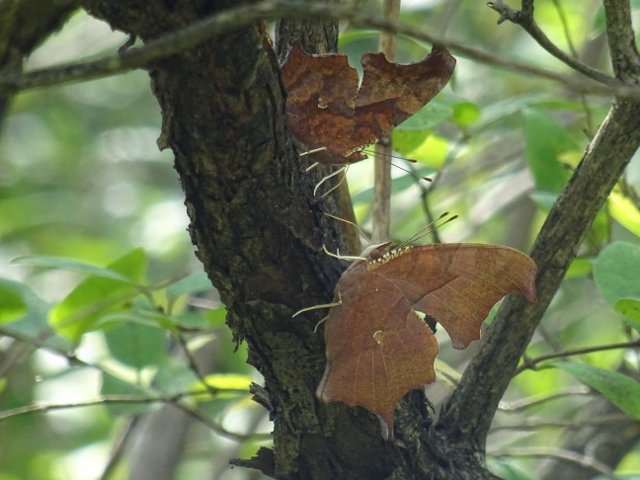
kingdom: Animalia
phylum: Arthropoda
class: Insecta
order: Lepidoptera
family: Nymphalidae
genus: Polygonia
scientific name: Polygonia interrogationis
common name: Question Mark
